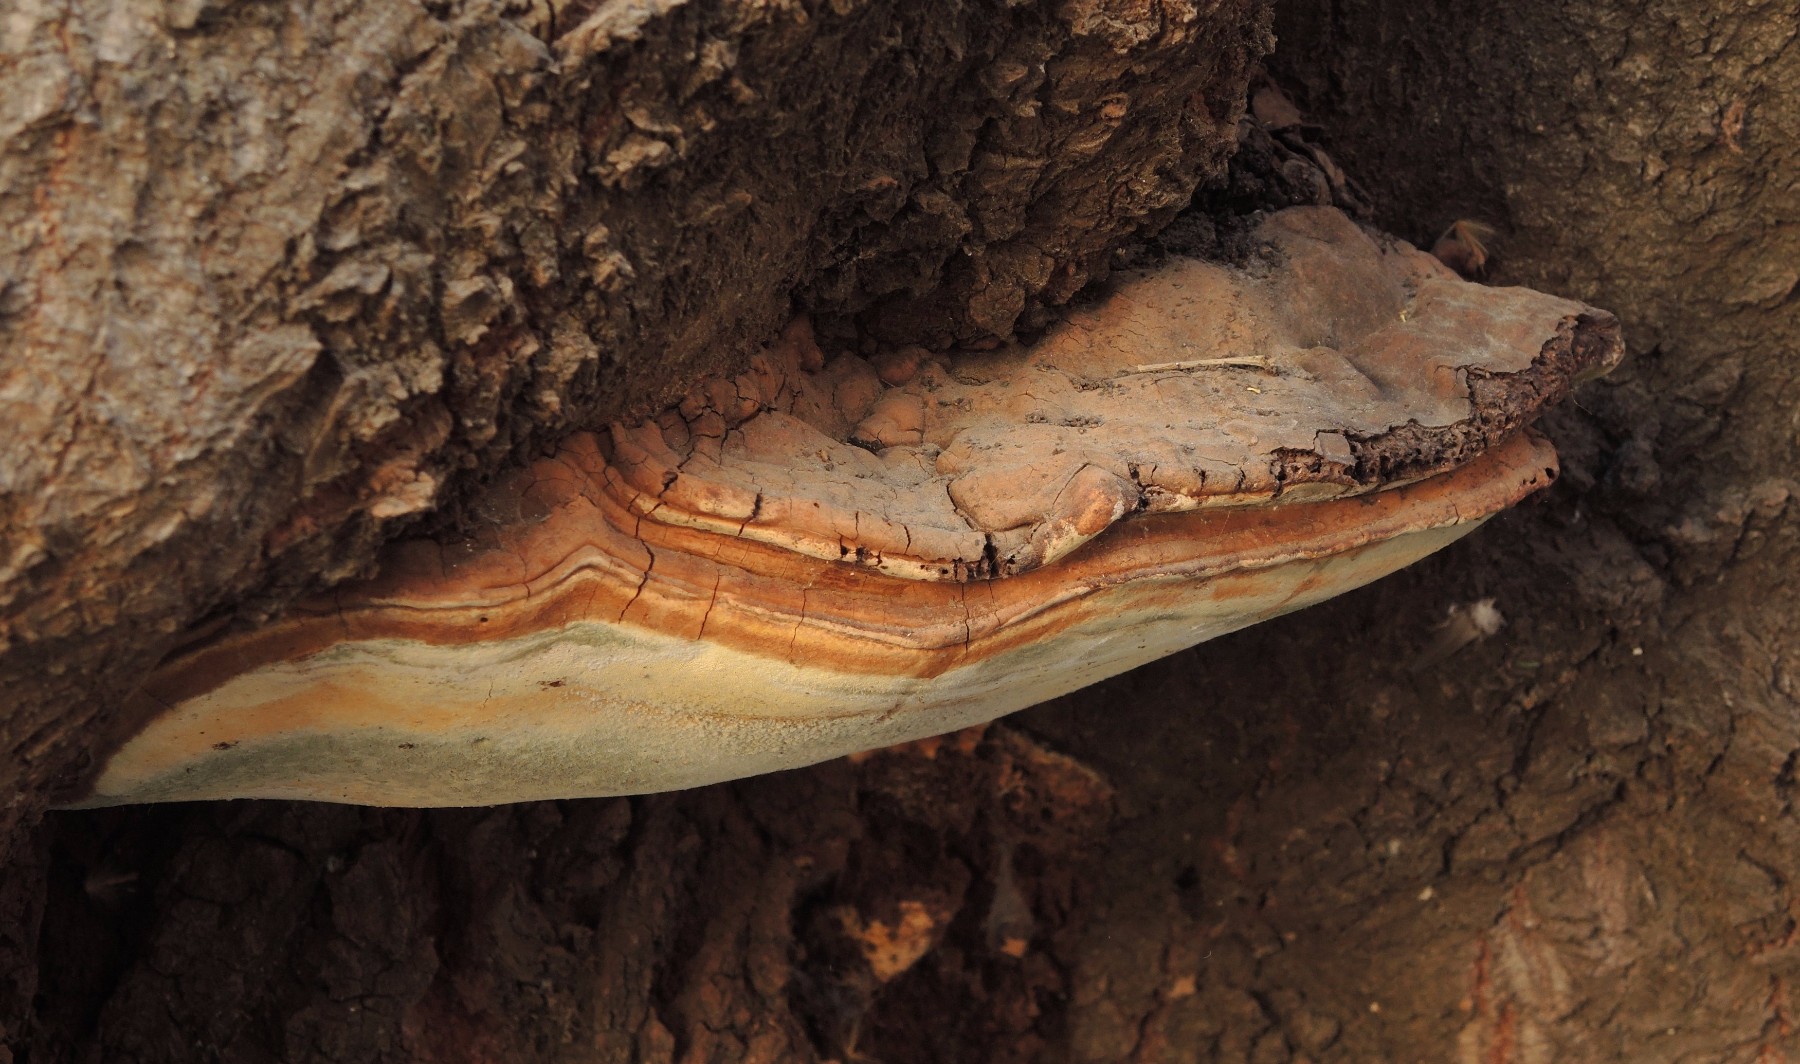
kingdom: Fungi
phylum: Basidiomycota
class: Agaricomycetes
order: Polyporales
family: Polyporaceae
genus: Ganoderma
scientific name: Ganoderma adspersum
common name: grov lakporesvamp
